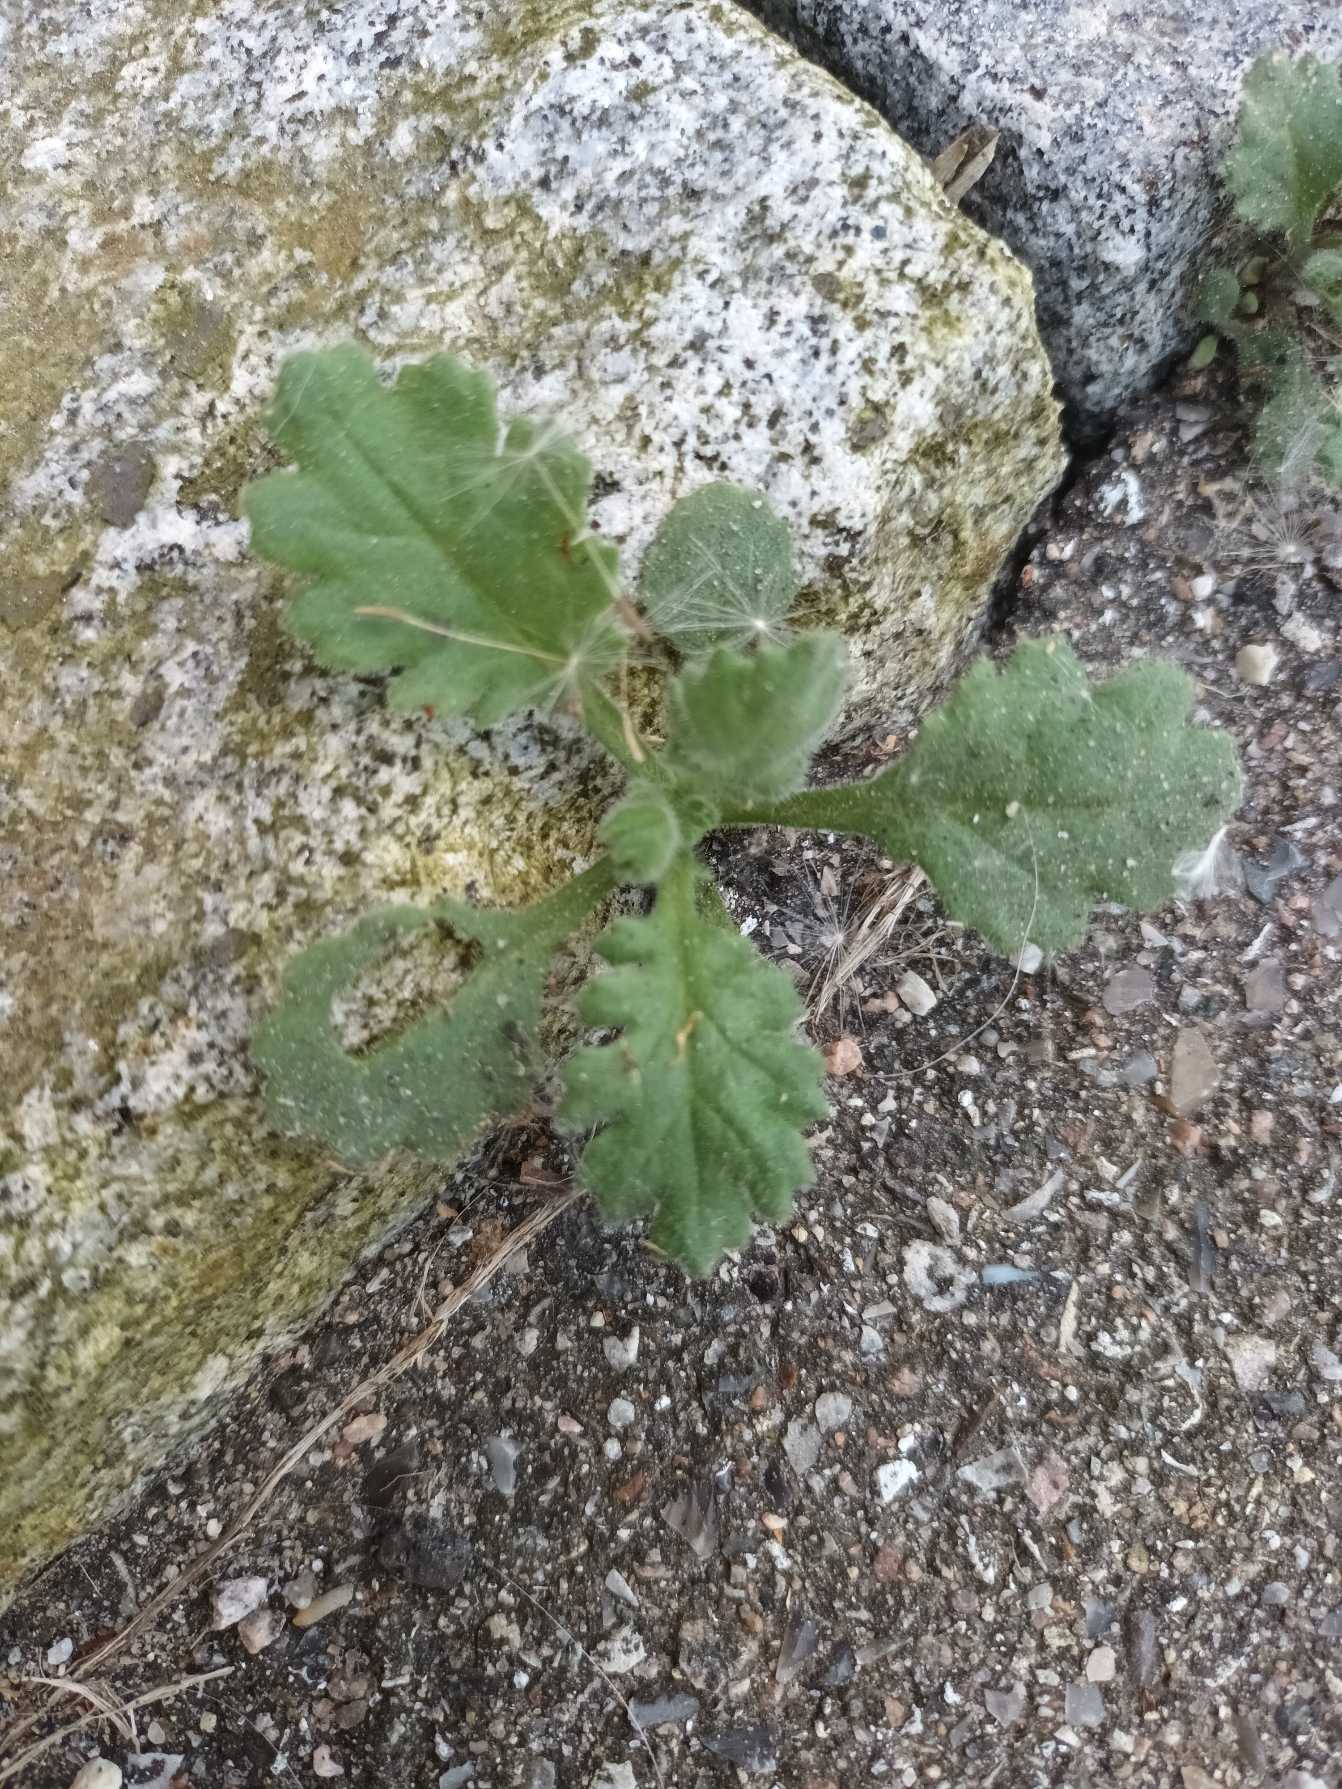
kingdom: Plantae
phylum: Tracheophyta
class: Magnoliopsida
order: Asterales
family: Asteraceae
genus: Senecio
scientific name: Senecio viscosus
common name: Klæbrig brandbæger
